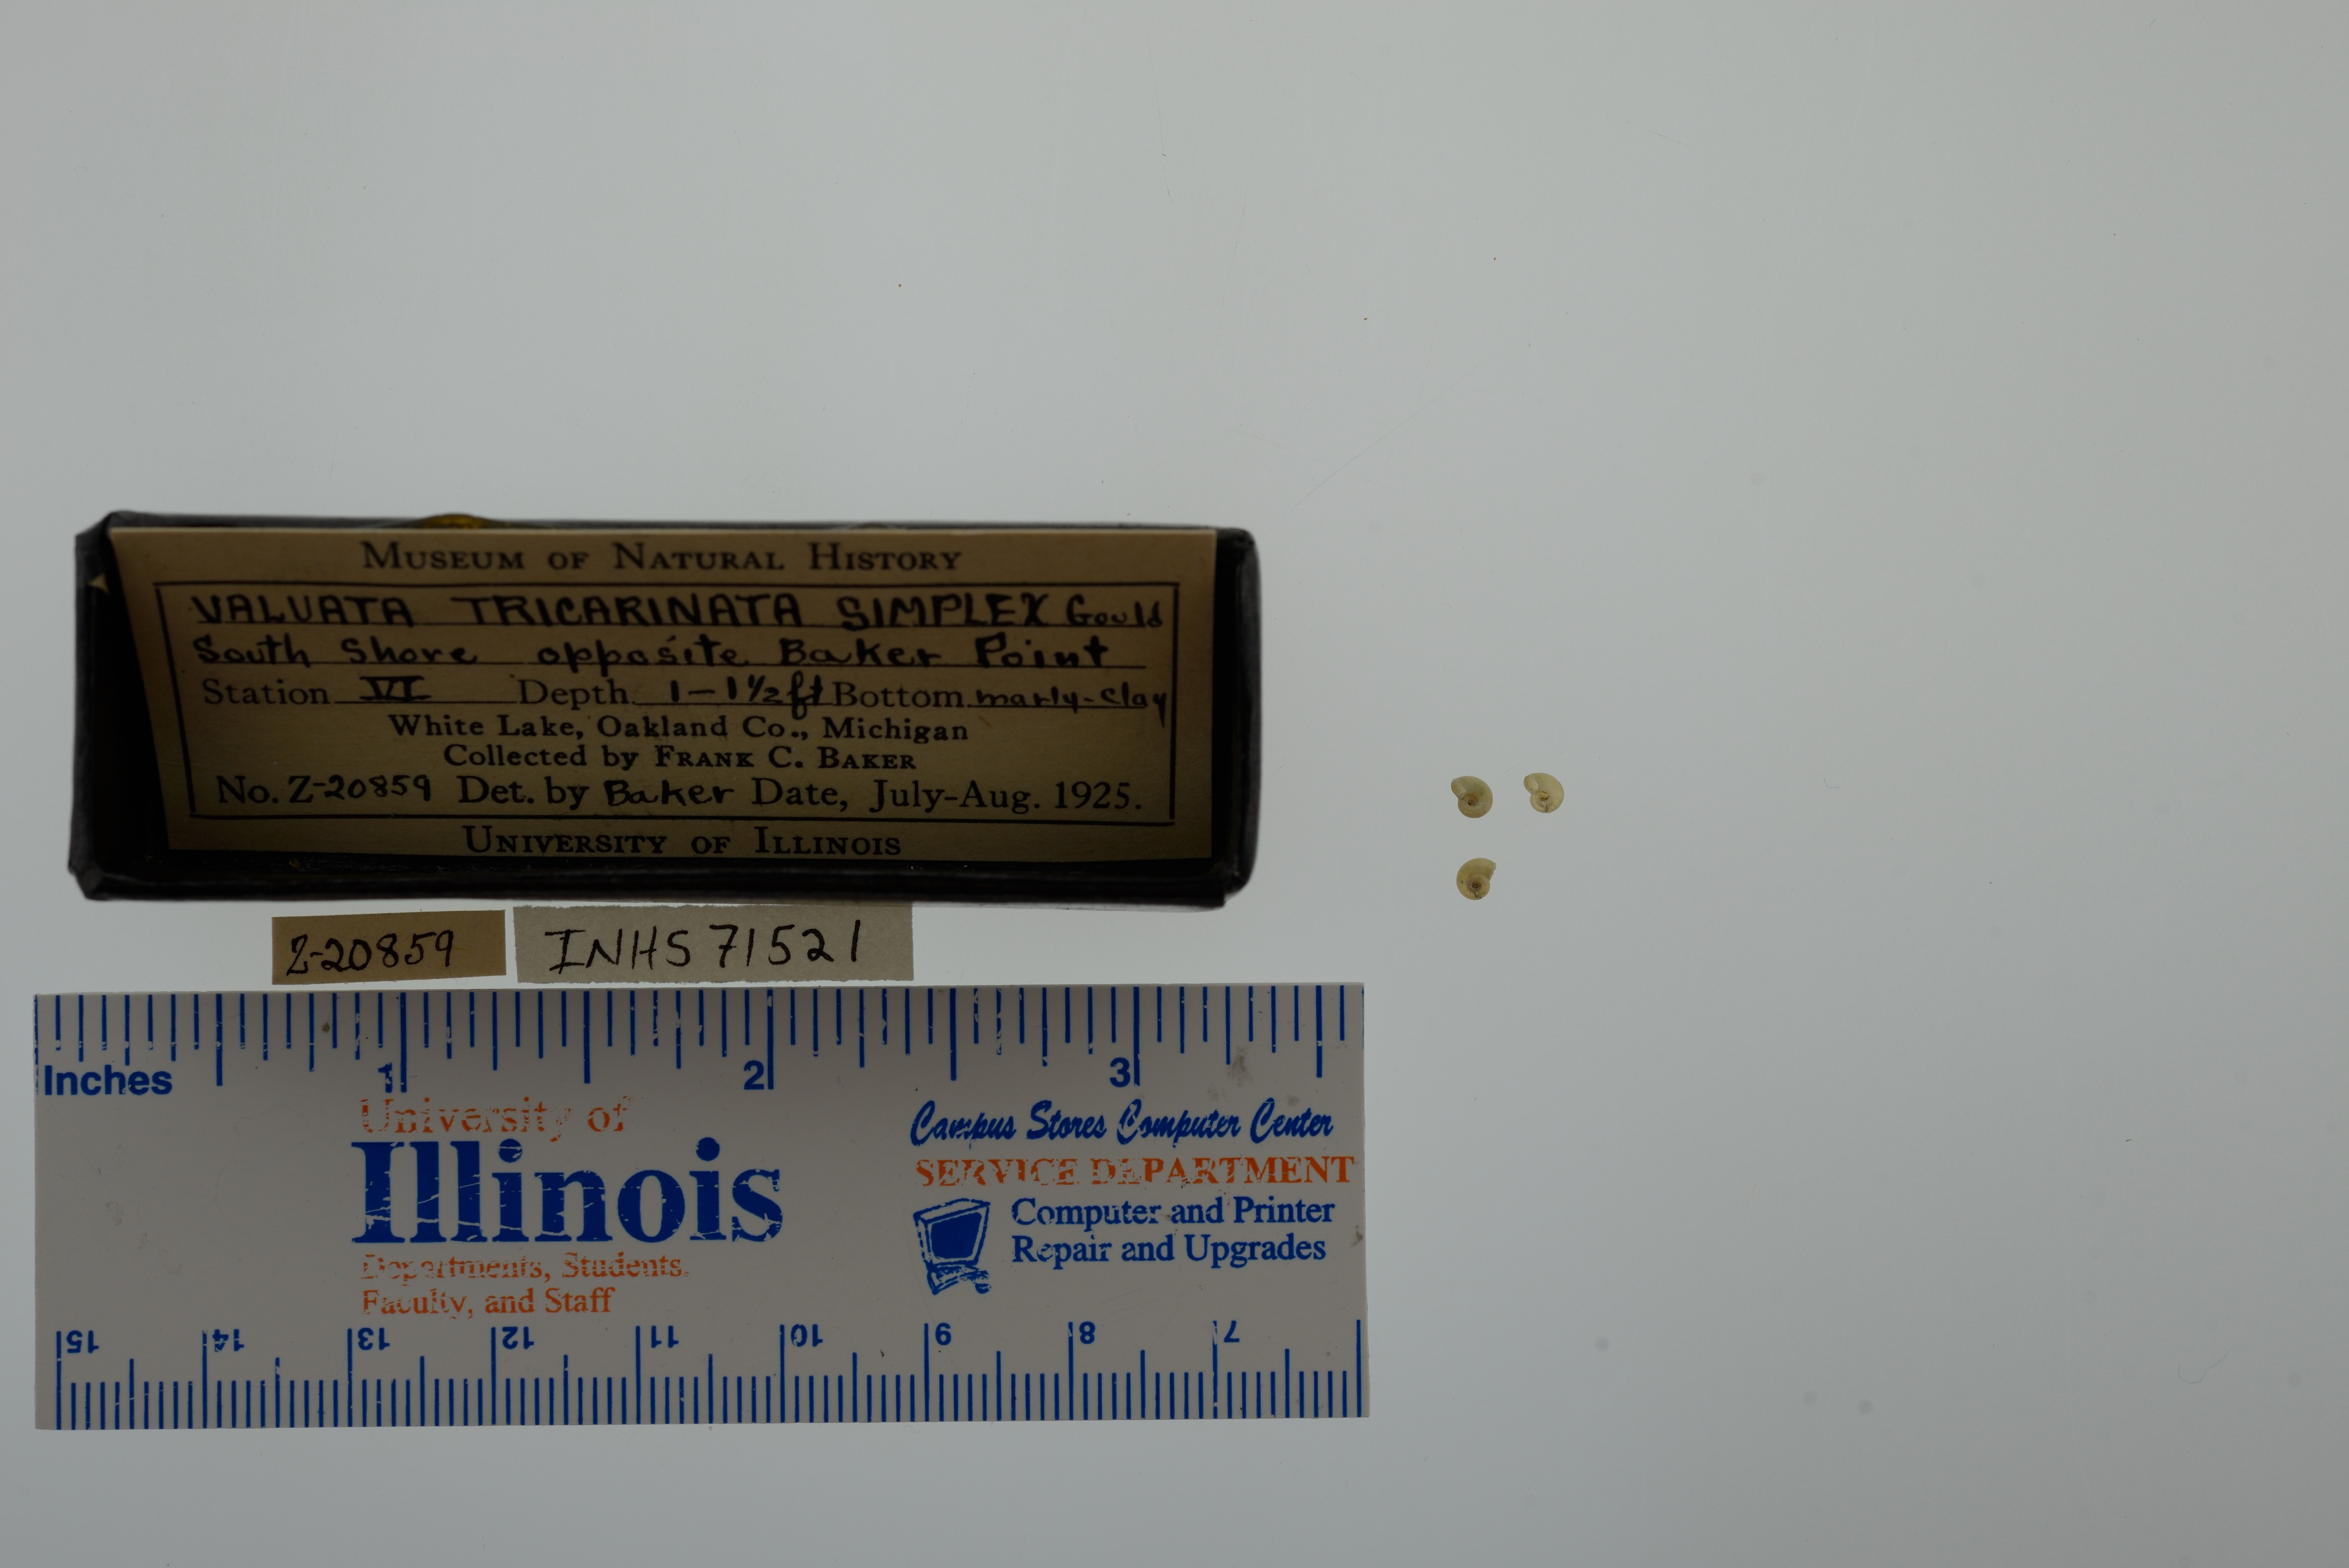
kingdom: Animalia
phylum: Mollusca
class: Gastropoda
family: Valvatidae
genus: Valvata
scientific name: Valvata tricarinata
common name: Three-ridge valvata
